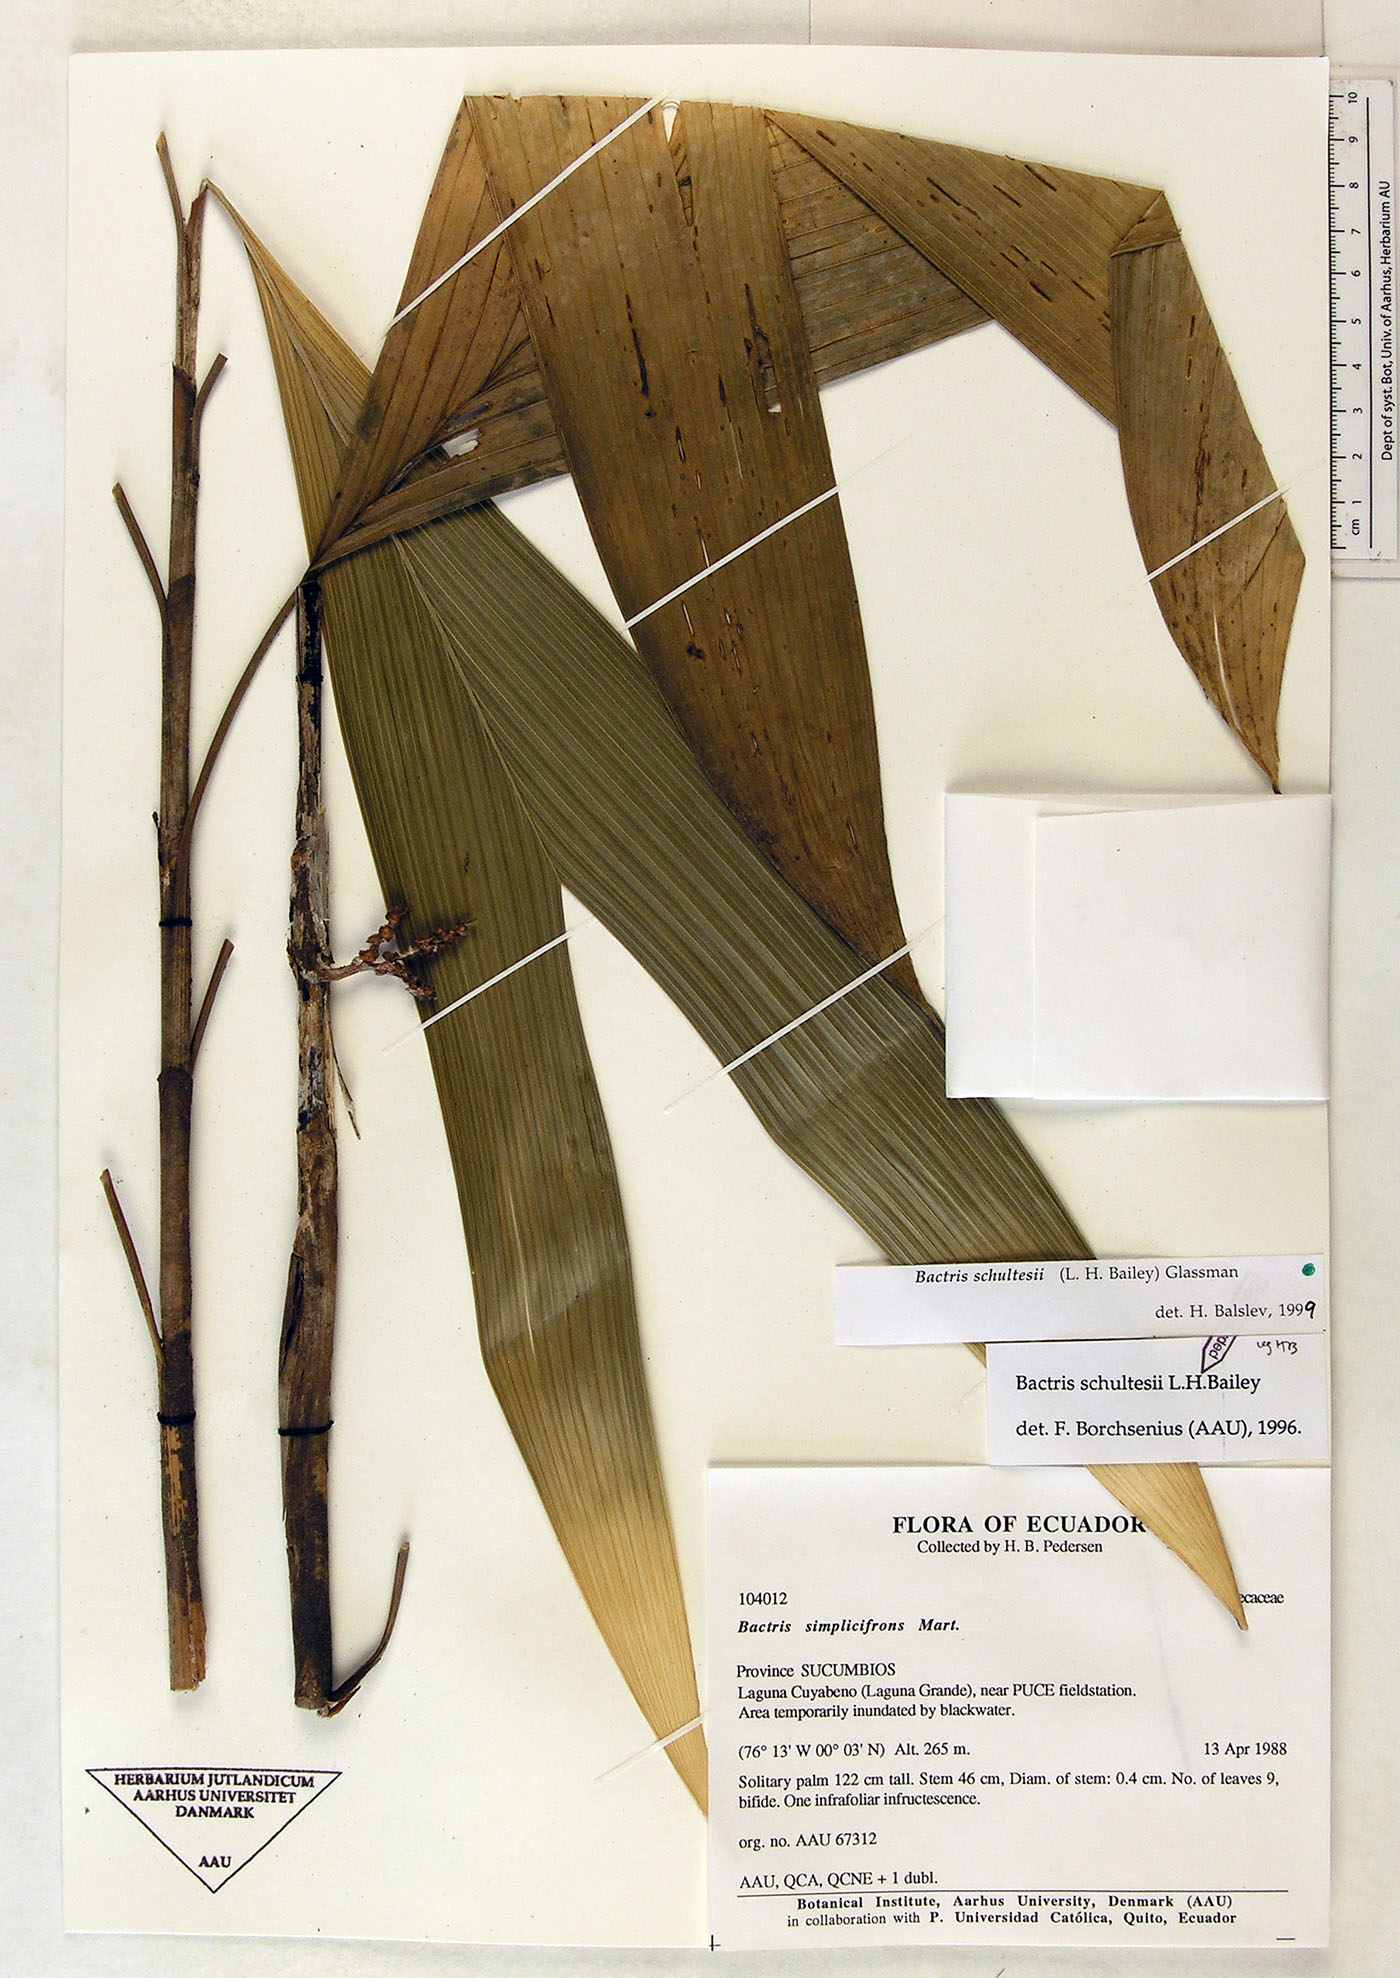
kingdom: Plantae
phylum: Tracheophyta
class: Liliopsida
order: Arecales
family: Arecaceae
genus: Bactris
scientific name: Bactris schultesii
